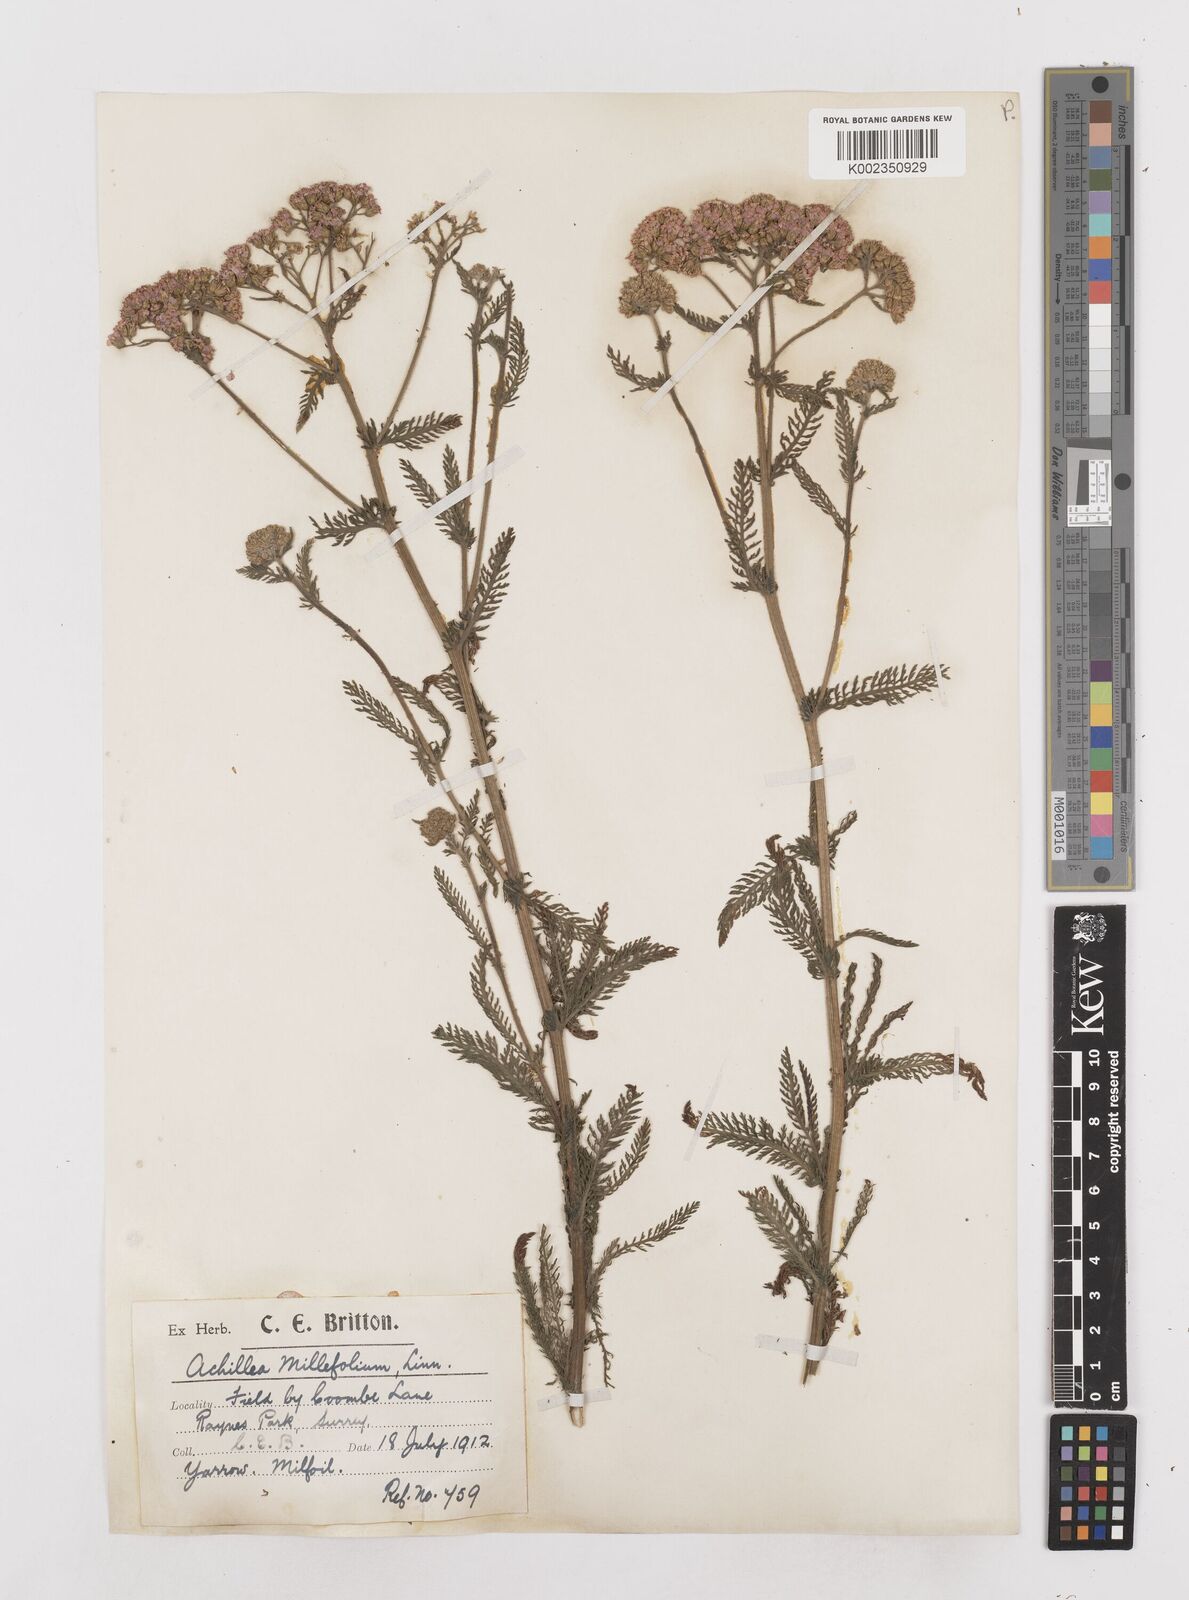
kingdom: Plantae
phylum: Tracheophyta
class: Magnoliopsida
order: Asterales
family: Asteraceae
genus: Achillea
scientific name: Achillea distans
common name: Tall yarrow
